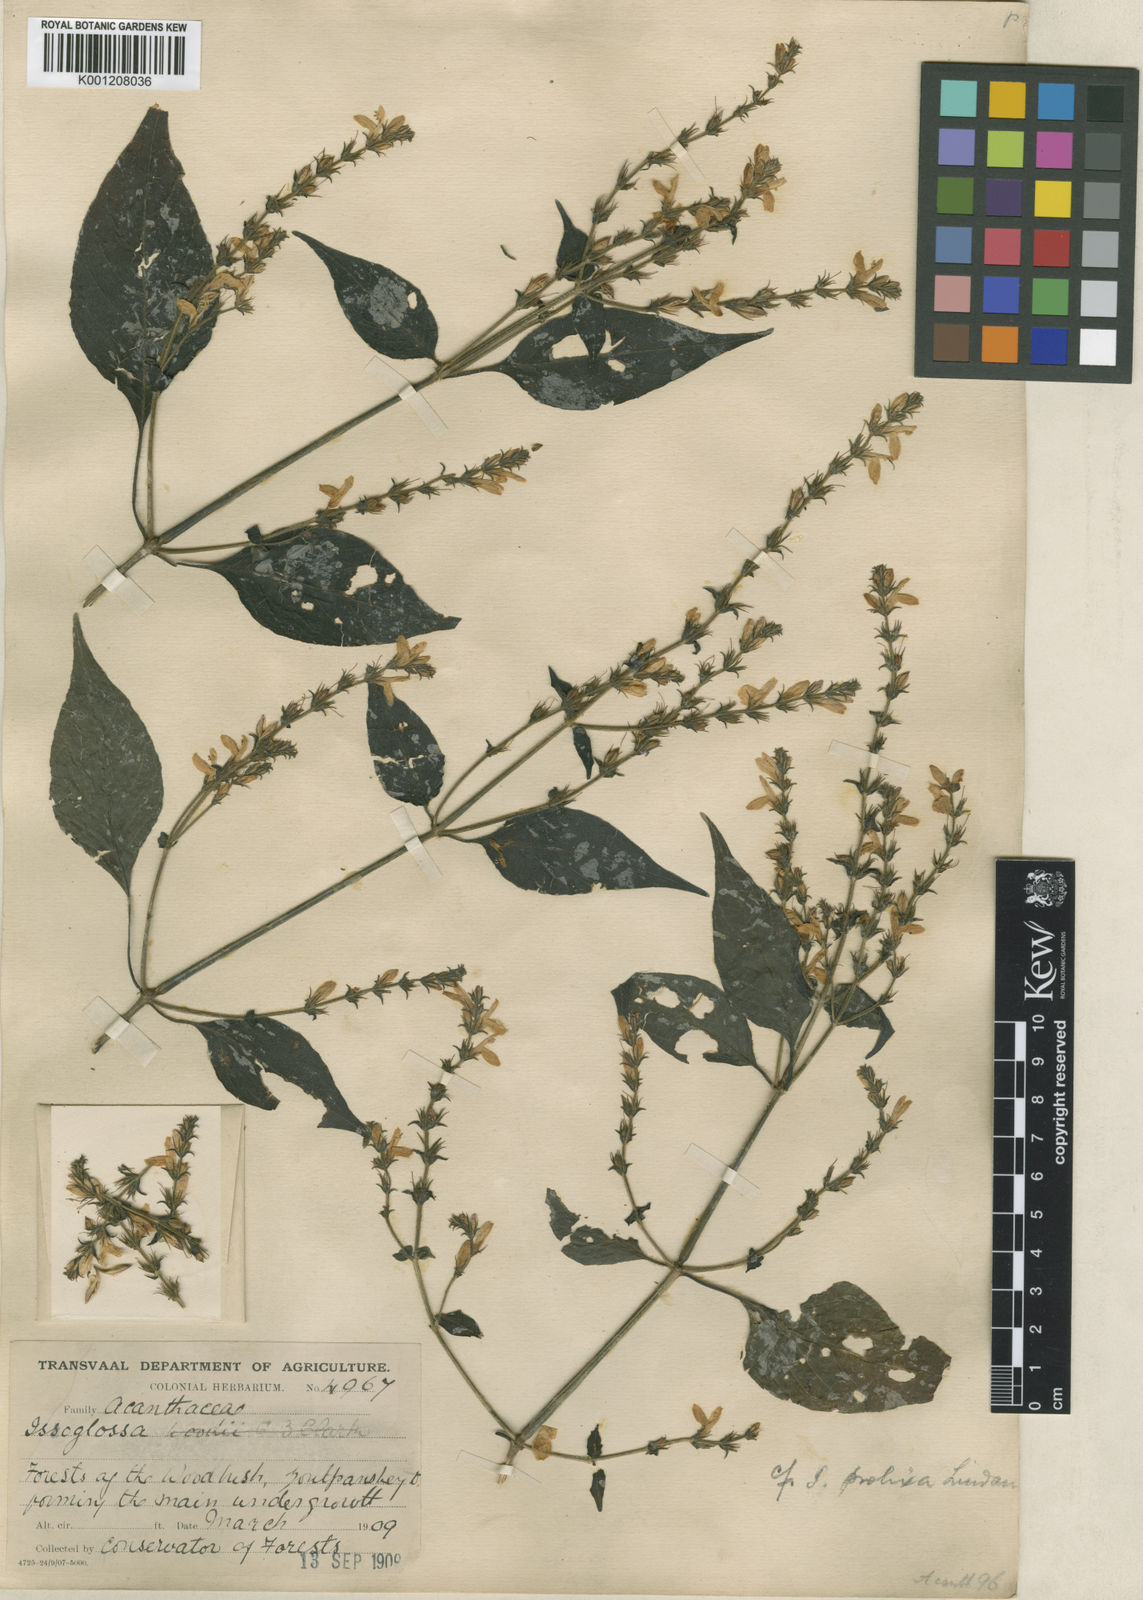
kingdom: Plantae
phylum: Tracheophyta
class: Magnoliopsida
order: Lamiales
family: Acanthaceae
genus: Isoglossa
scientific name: Isoglossa delicatula
